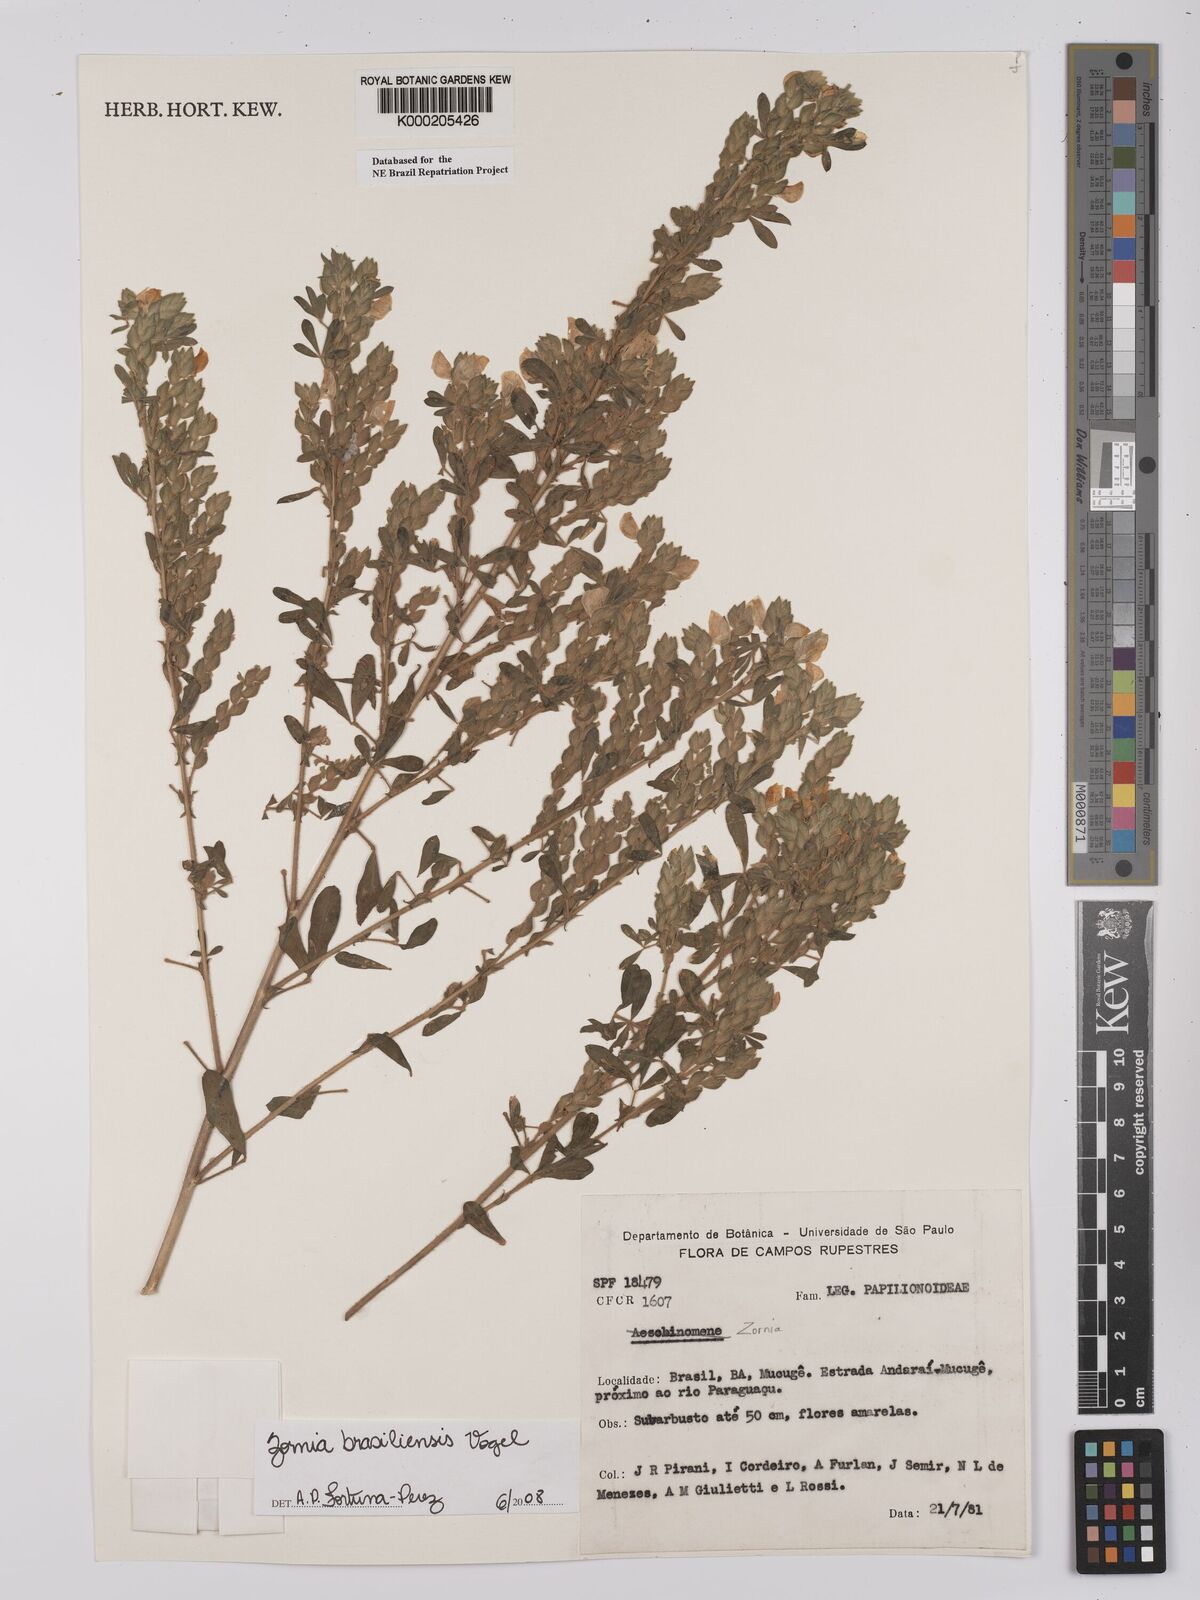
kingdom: Plantae
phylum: Tracheophyta
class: Magnoliopsida
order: Fabales
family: Fabaceae
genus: Zornia
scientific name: Zornia brasiliensis
